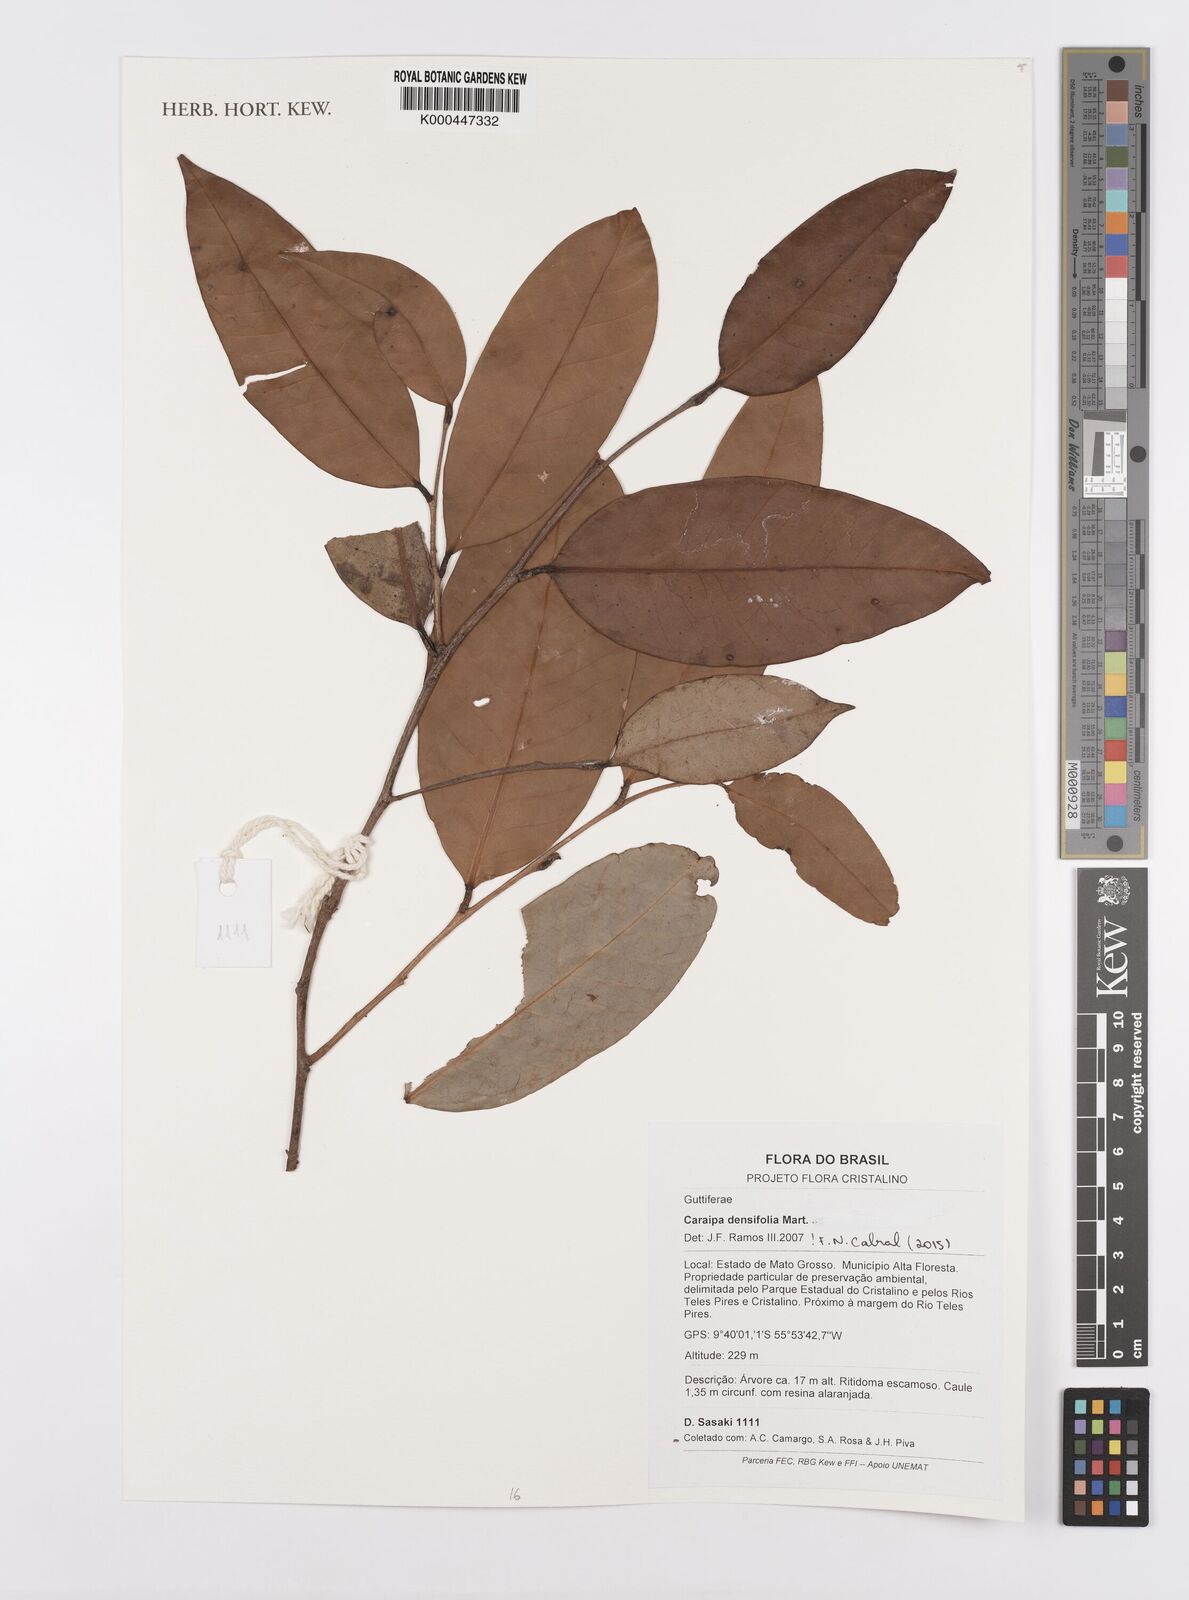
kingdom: Plantae
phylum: Tracheophyta
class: Magnoliopsida
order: Malpighiales
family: Calophyllaceae
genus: Caraipa
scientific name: Caraipa densifolia
